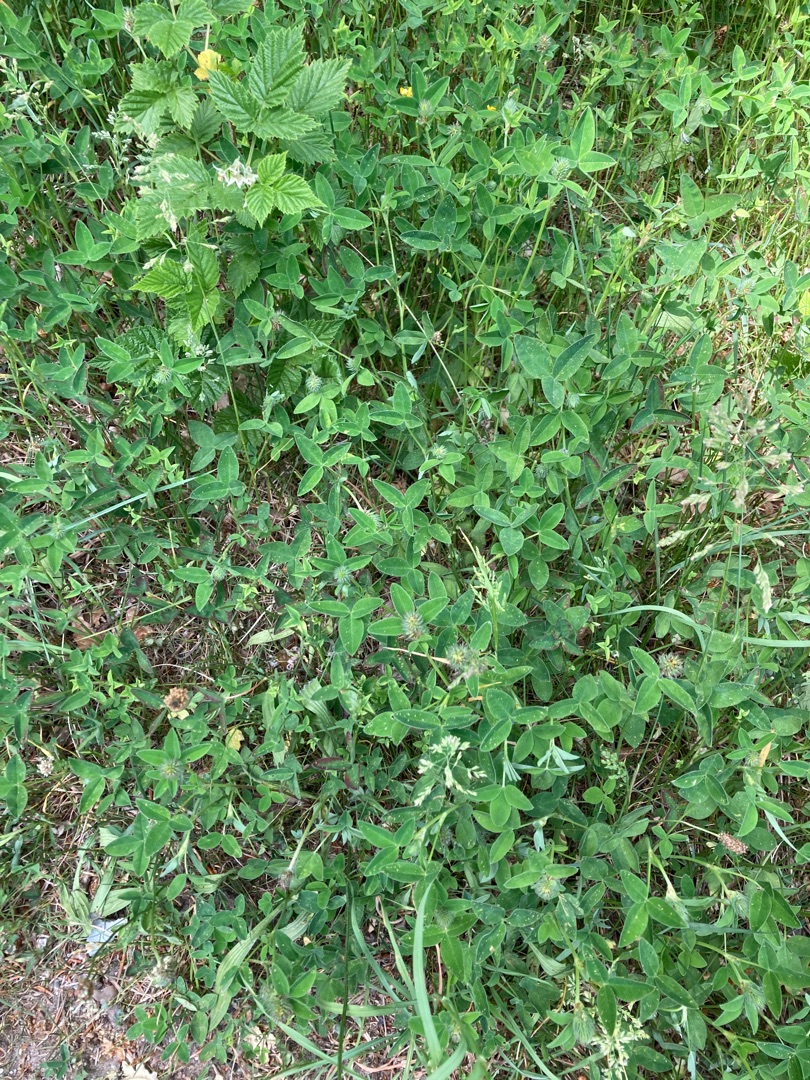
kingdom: Plantae
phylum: Tracheophyta
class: Magnoliopsida
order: Fabales
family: Fabaceae
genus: Trifolium
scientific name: Trifolium medium
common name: Bugtet kløver
